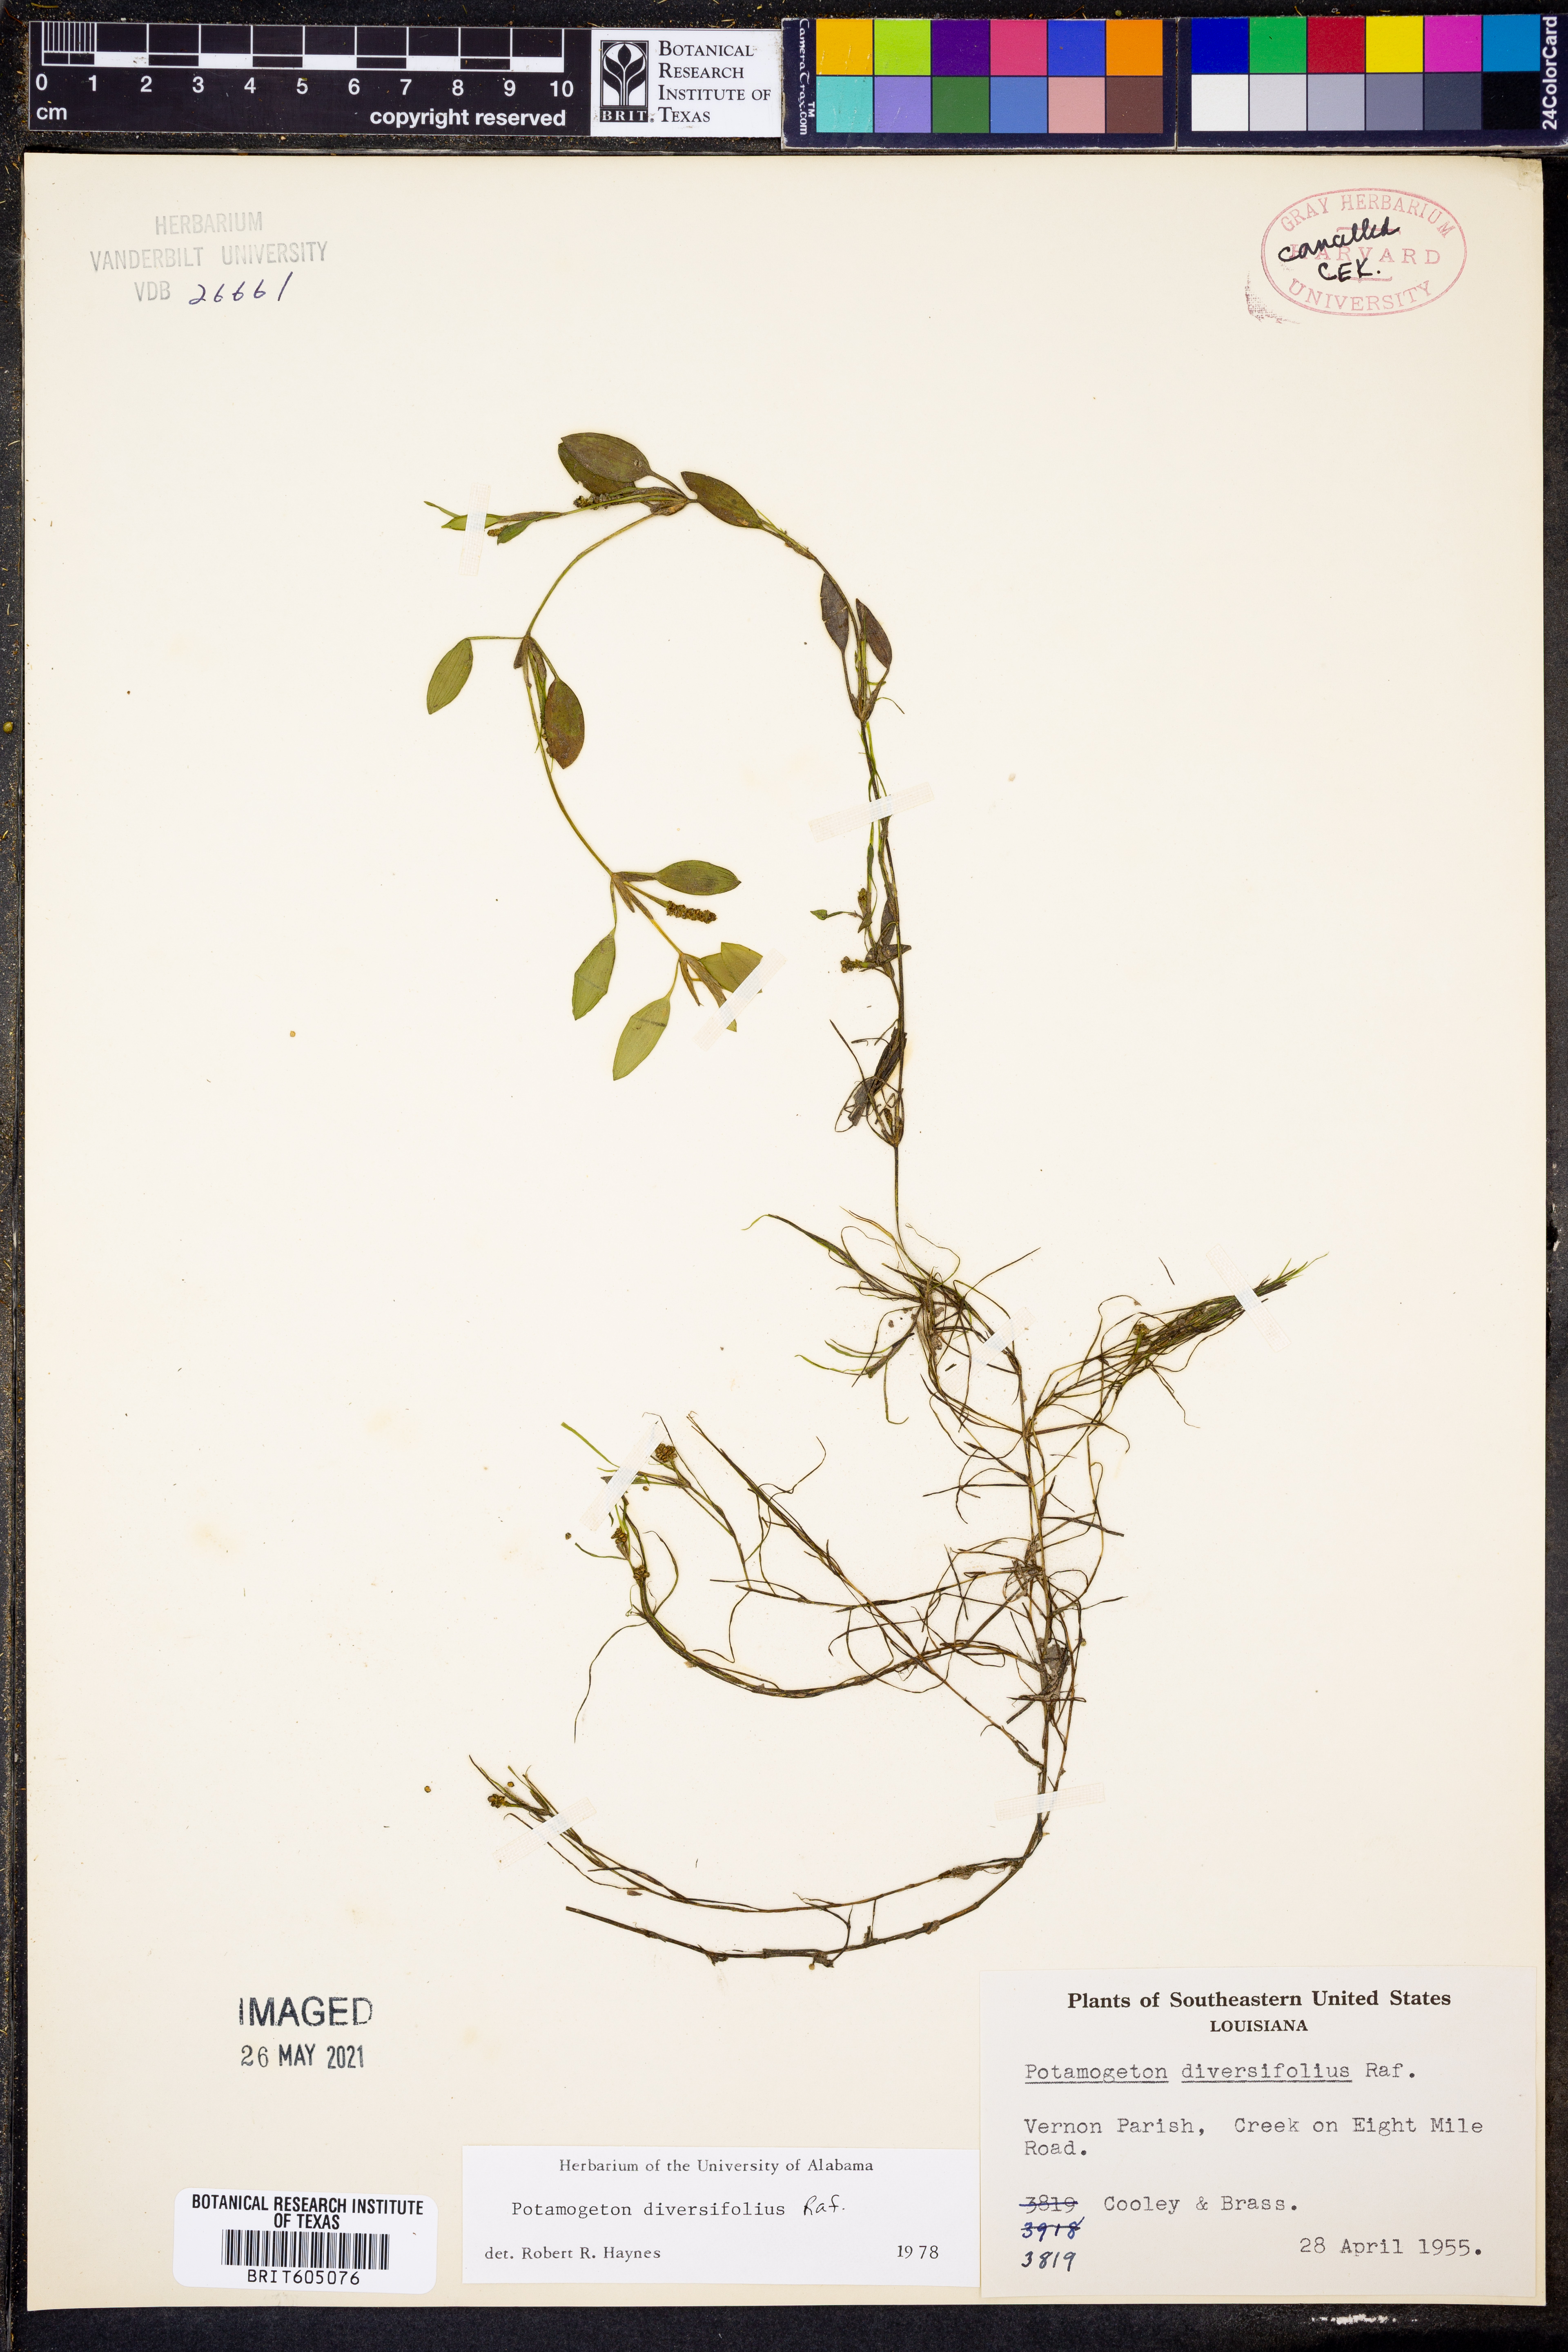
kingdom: Plantae
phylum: Tracheophyta
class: Liliopsida
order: Alismatales
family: Potamogetonaceae
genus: Potamogeton
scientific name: Potamogeton diversifolius
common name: Water-thread pondweed
